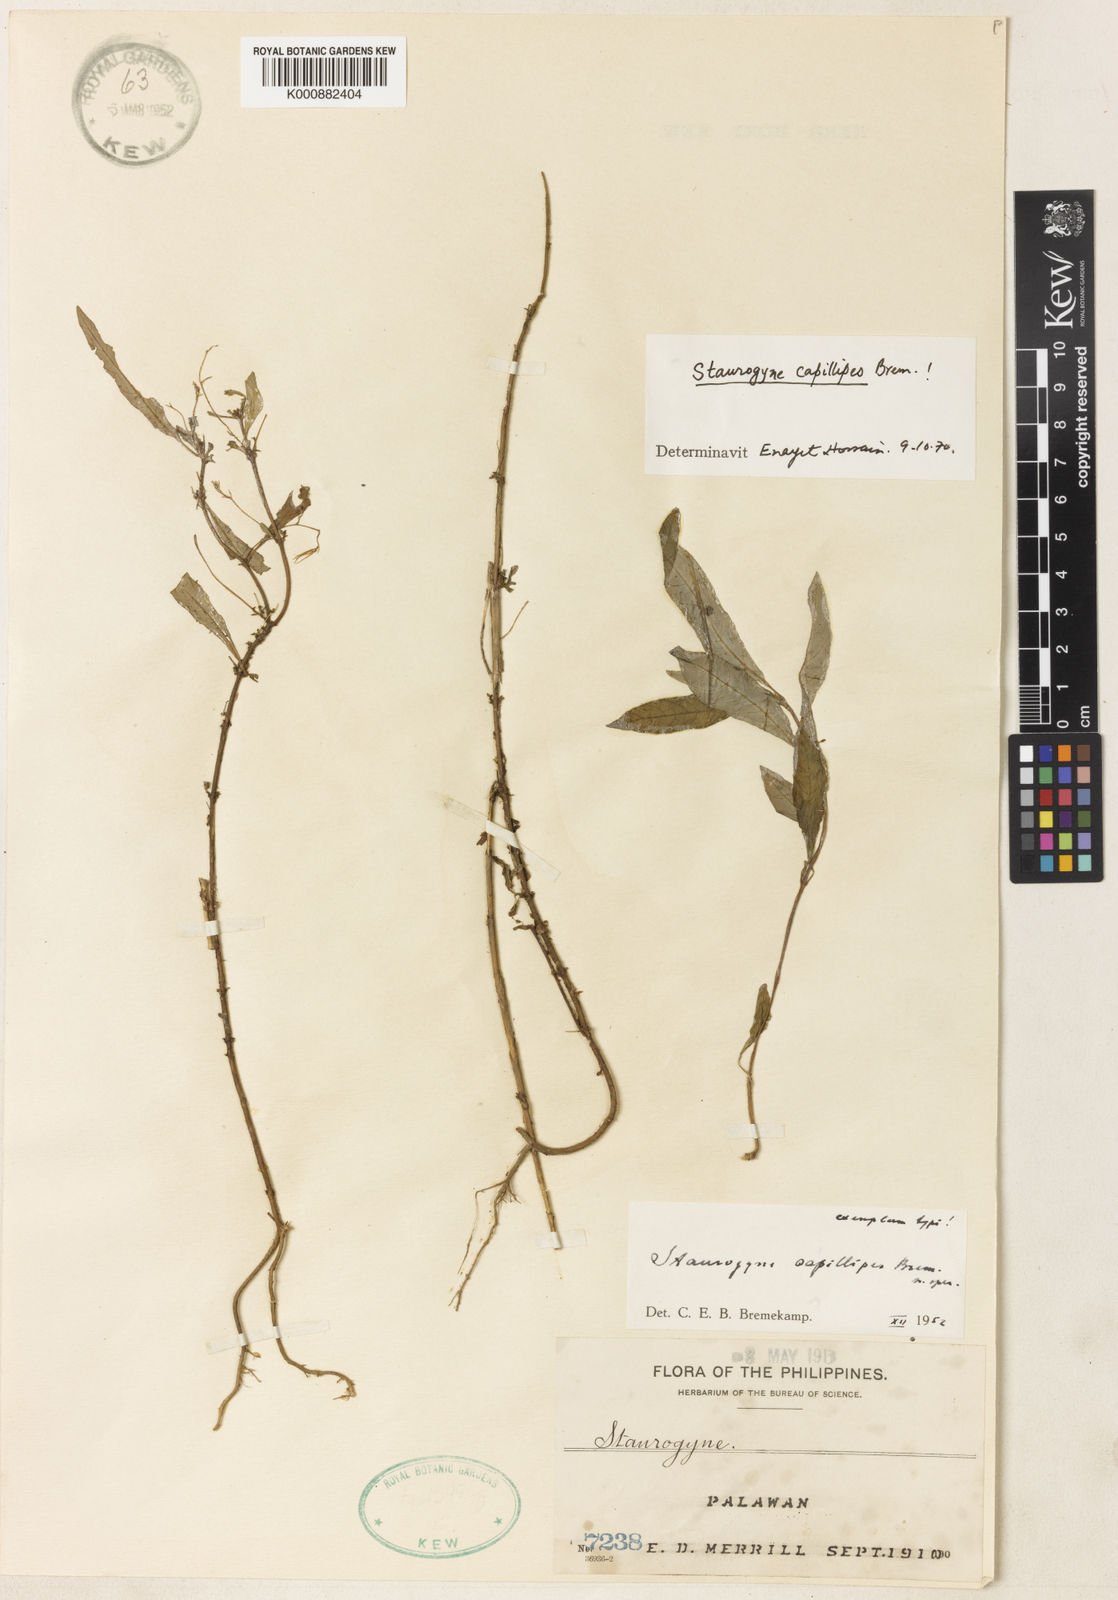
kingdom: Plantae
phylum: Tracheophyta
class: Magnoliopsida
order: Lamiales
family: Acanthaceae
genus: Staurogyne
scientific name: Staurogyne capillipes
